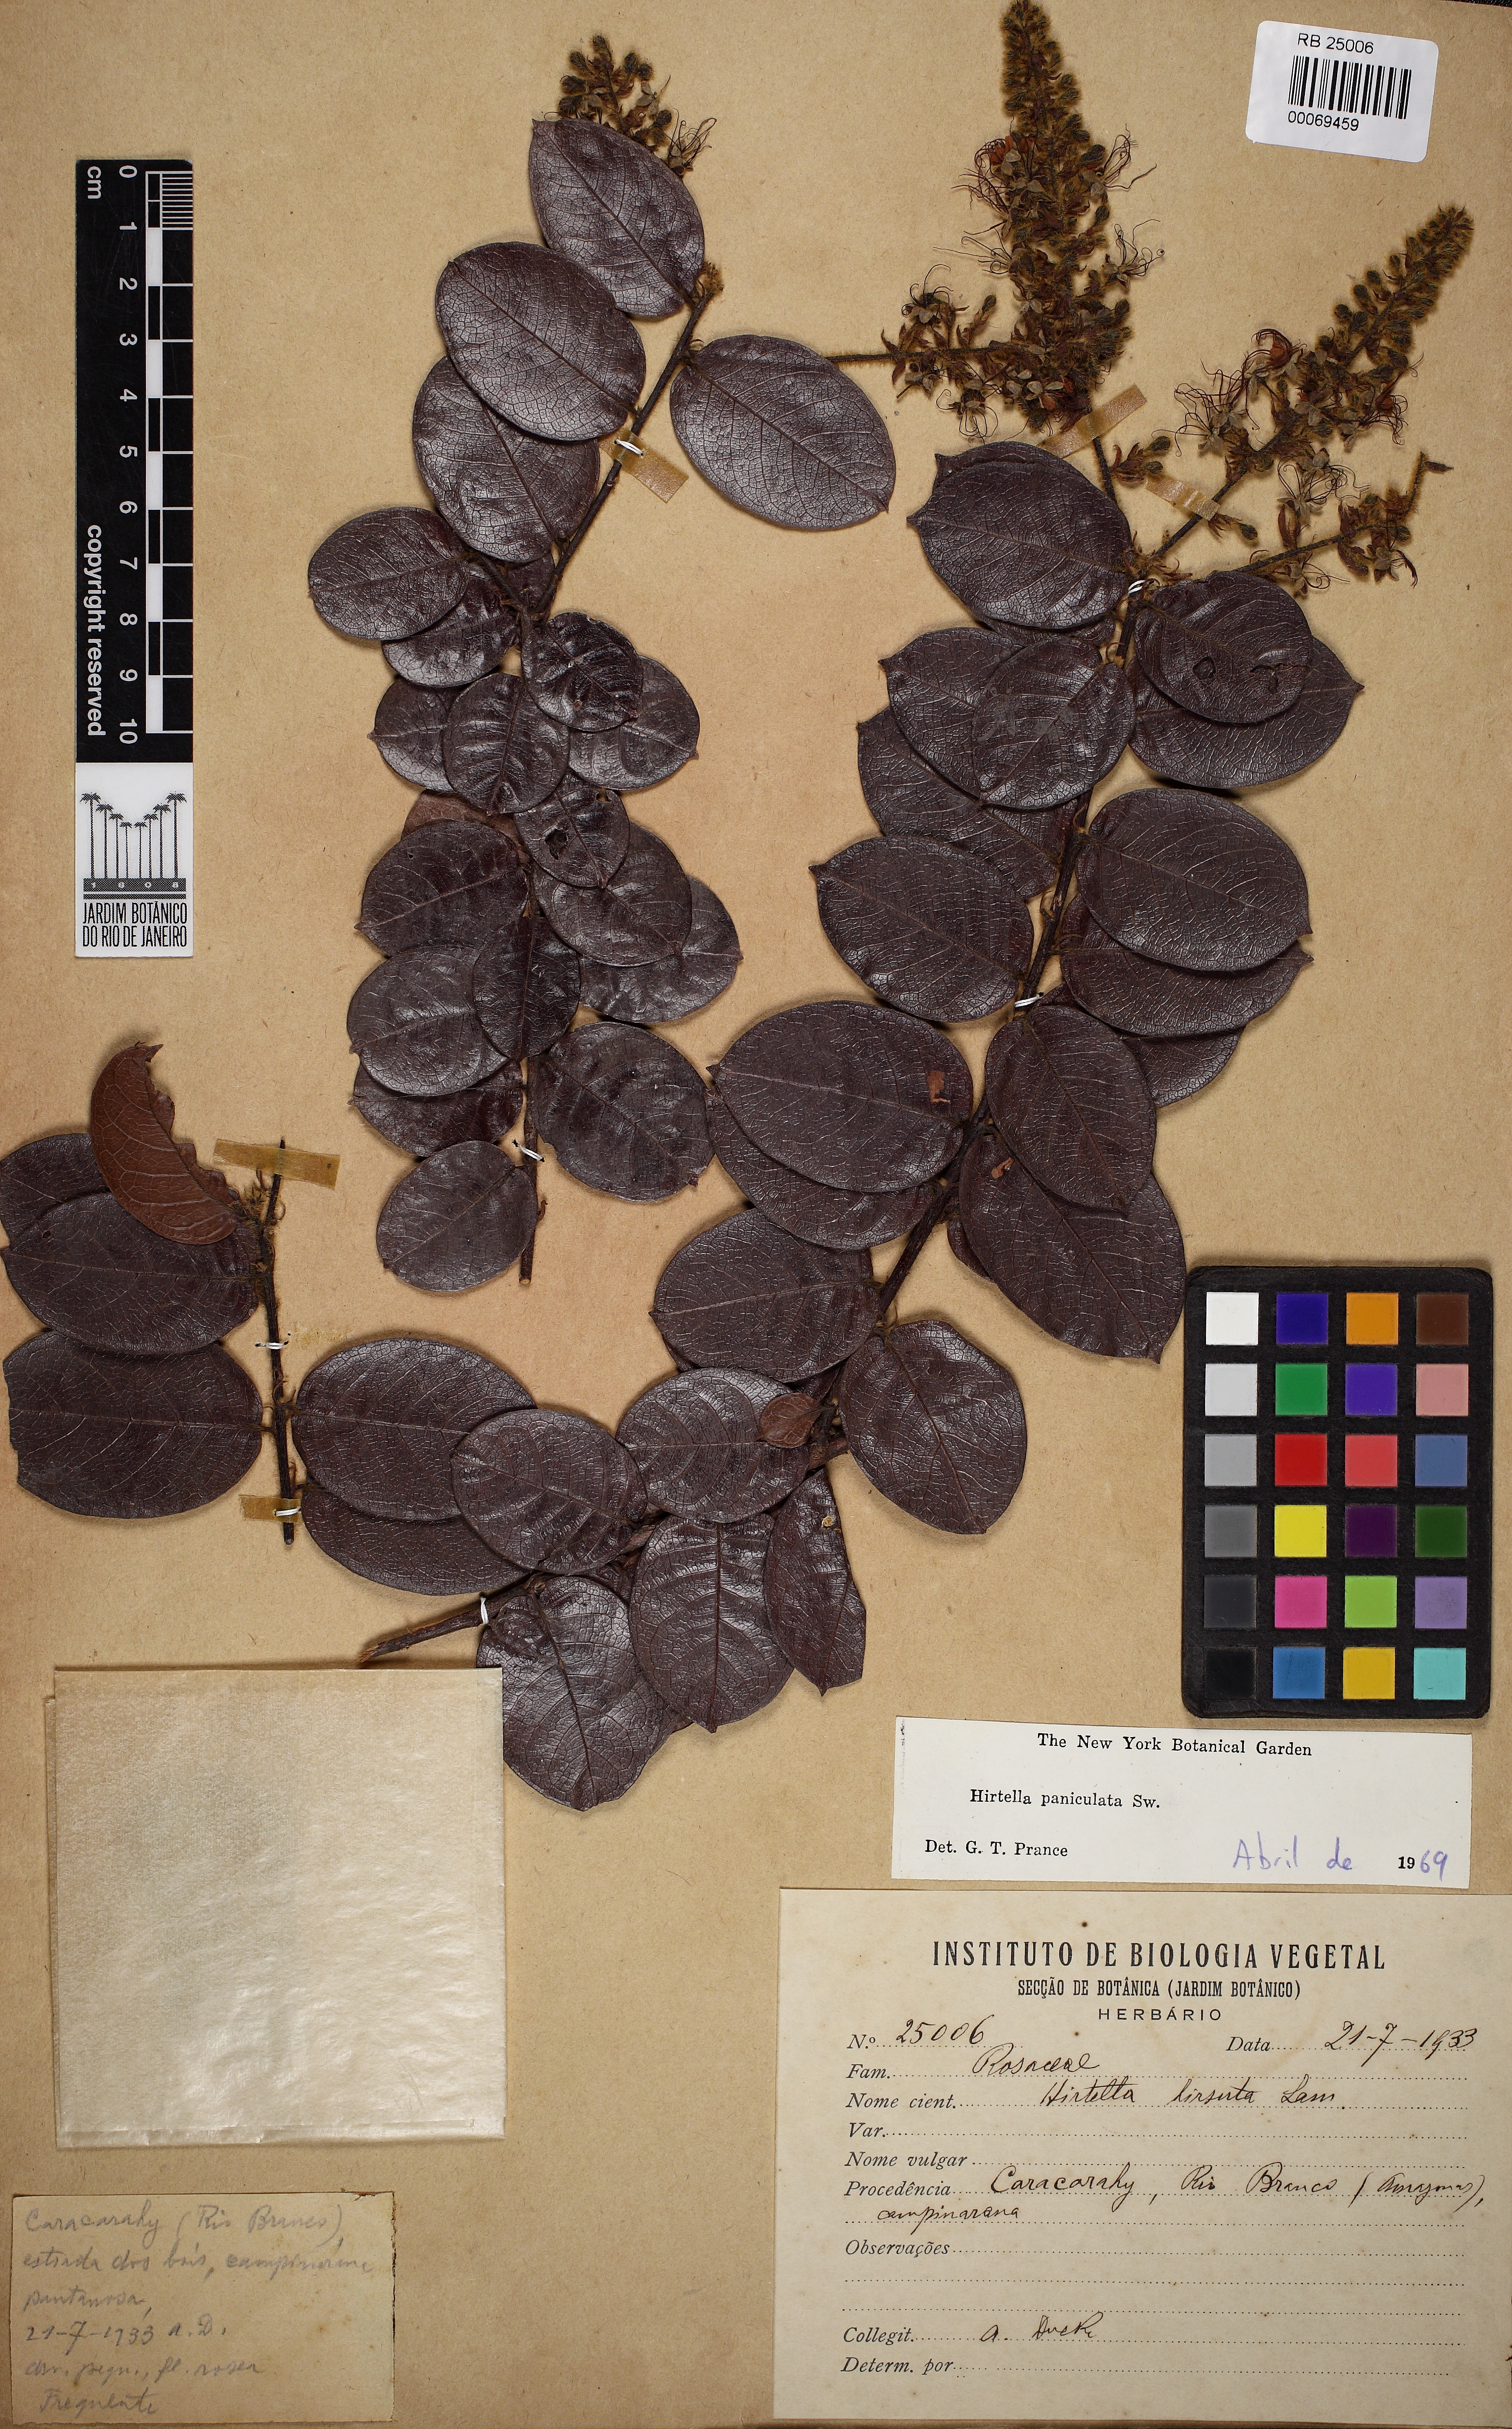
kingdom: Plantae
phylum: Tracheophyta
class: Magnoliopsida
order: Malpighiales
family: Chrysobalanaceae
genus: Hirtella
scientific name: Hirtella paniculata
